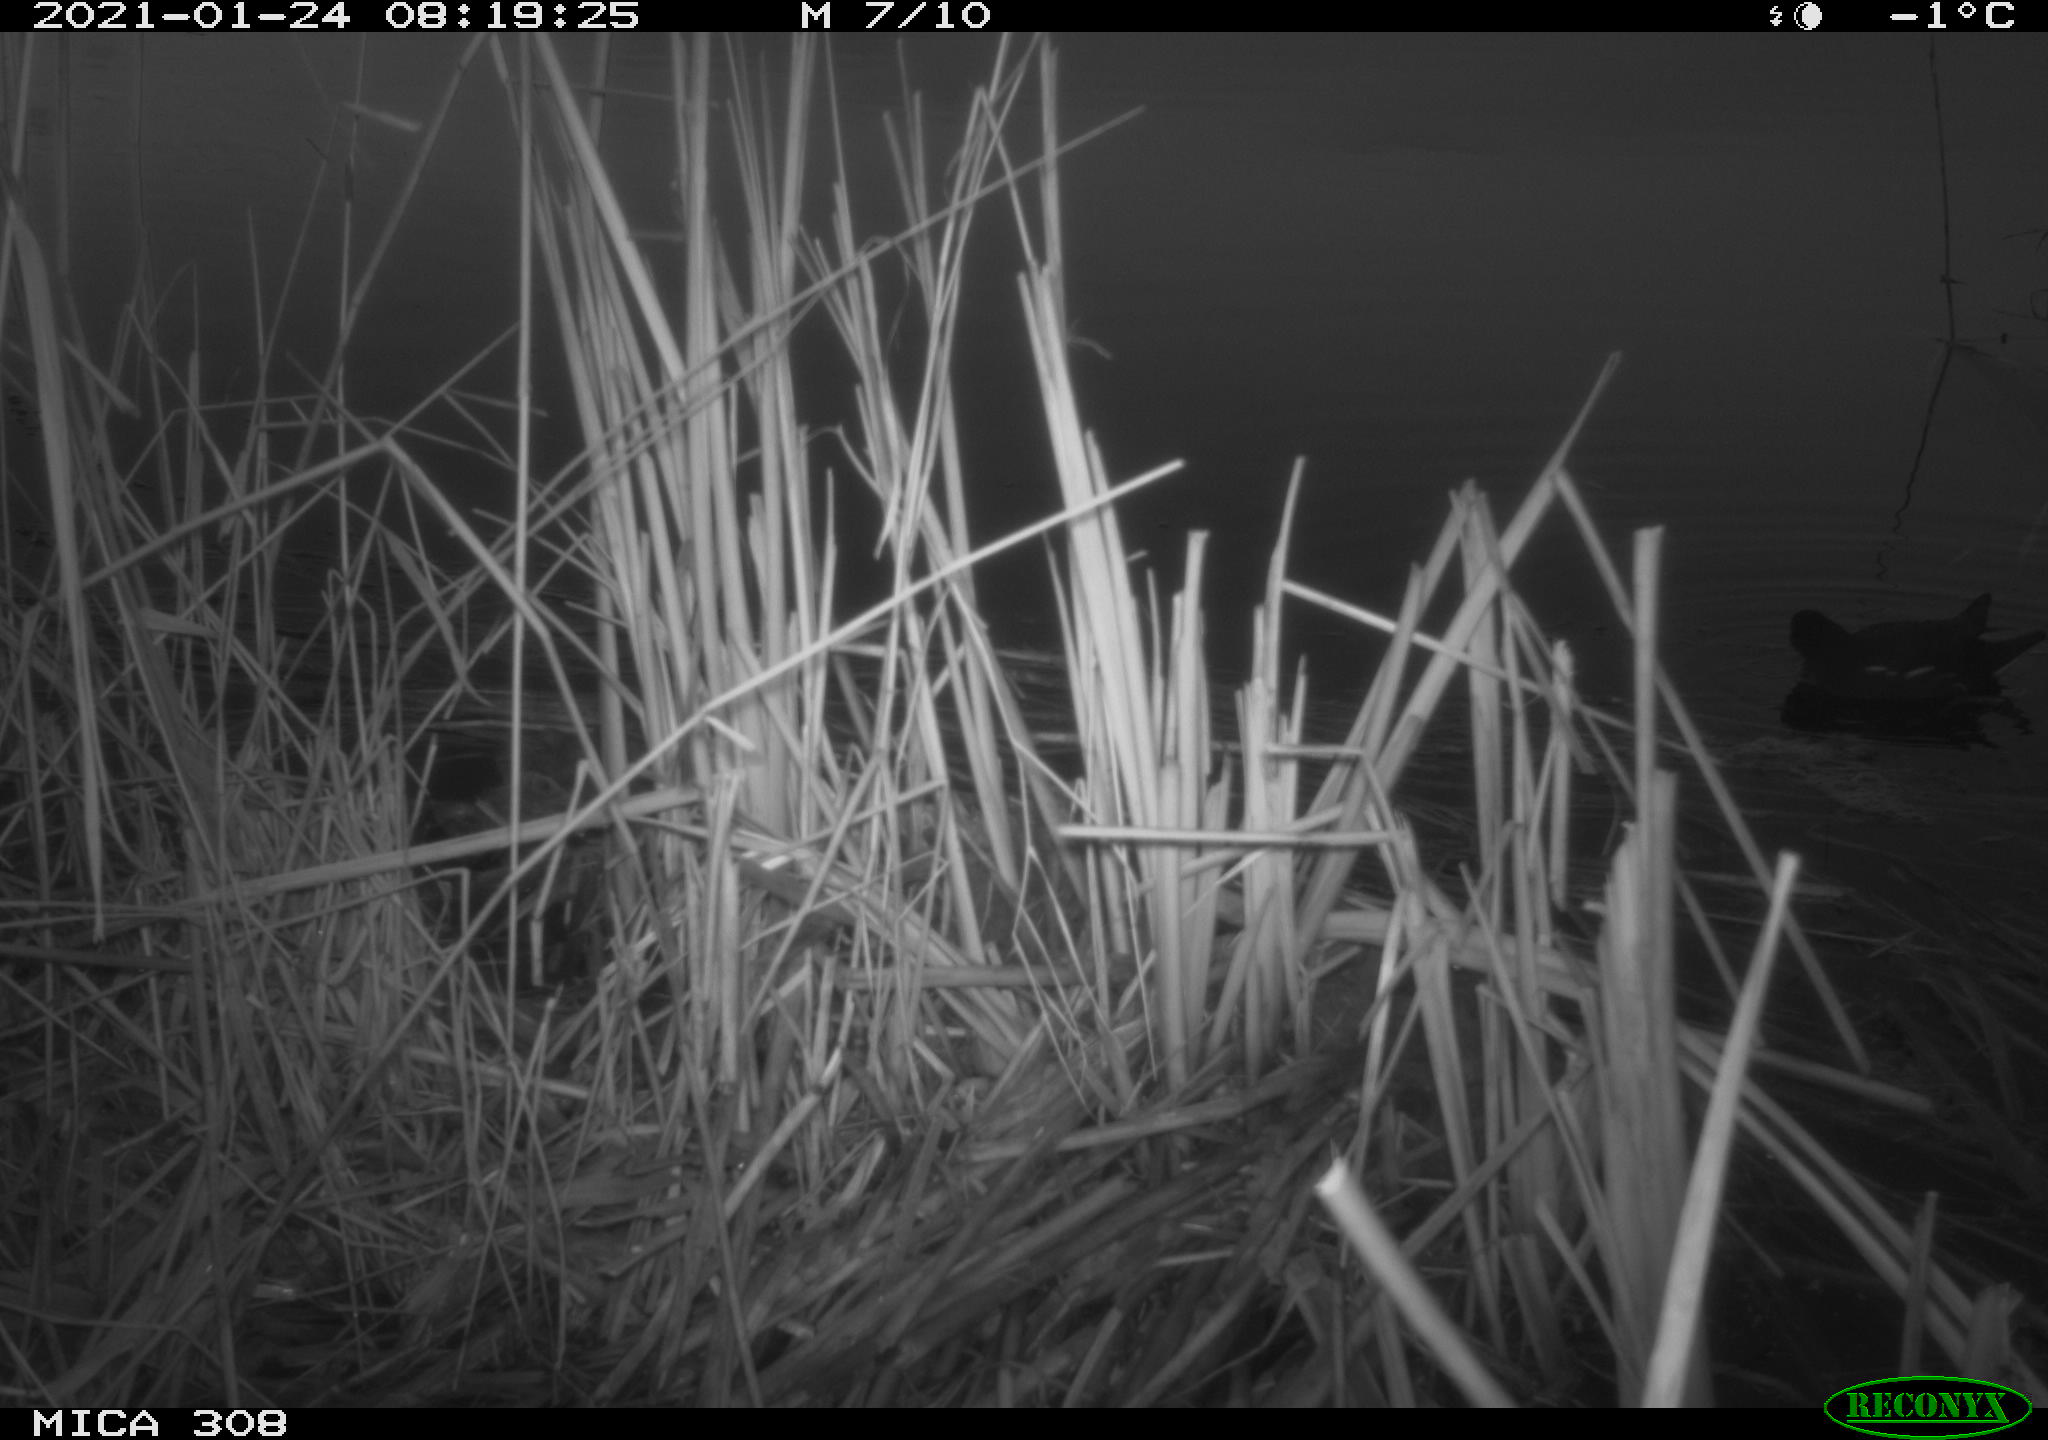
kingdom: Animalia
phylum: Chordata
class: Aves
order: Gruiformes
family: Rallidae
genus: Gallinula
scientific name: Gallinula chloropus
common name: Common moorhen
